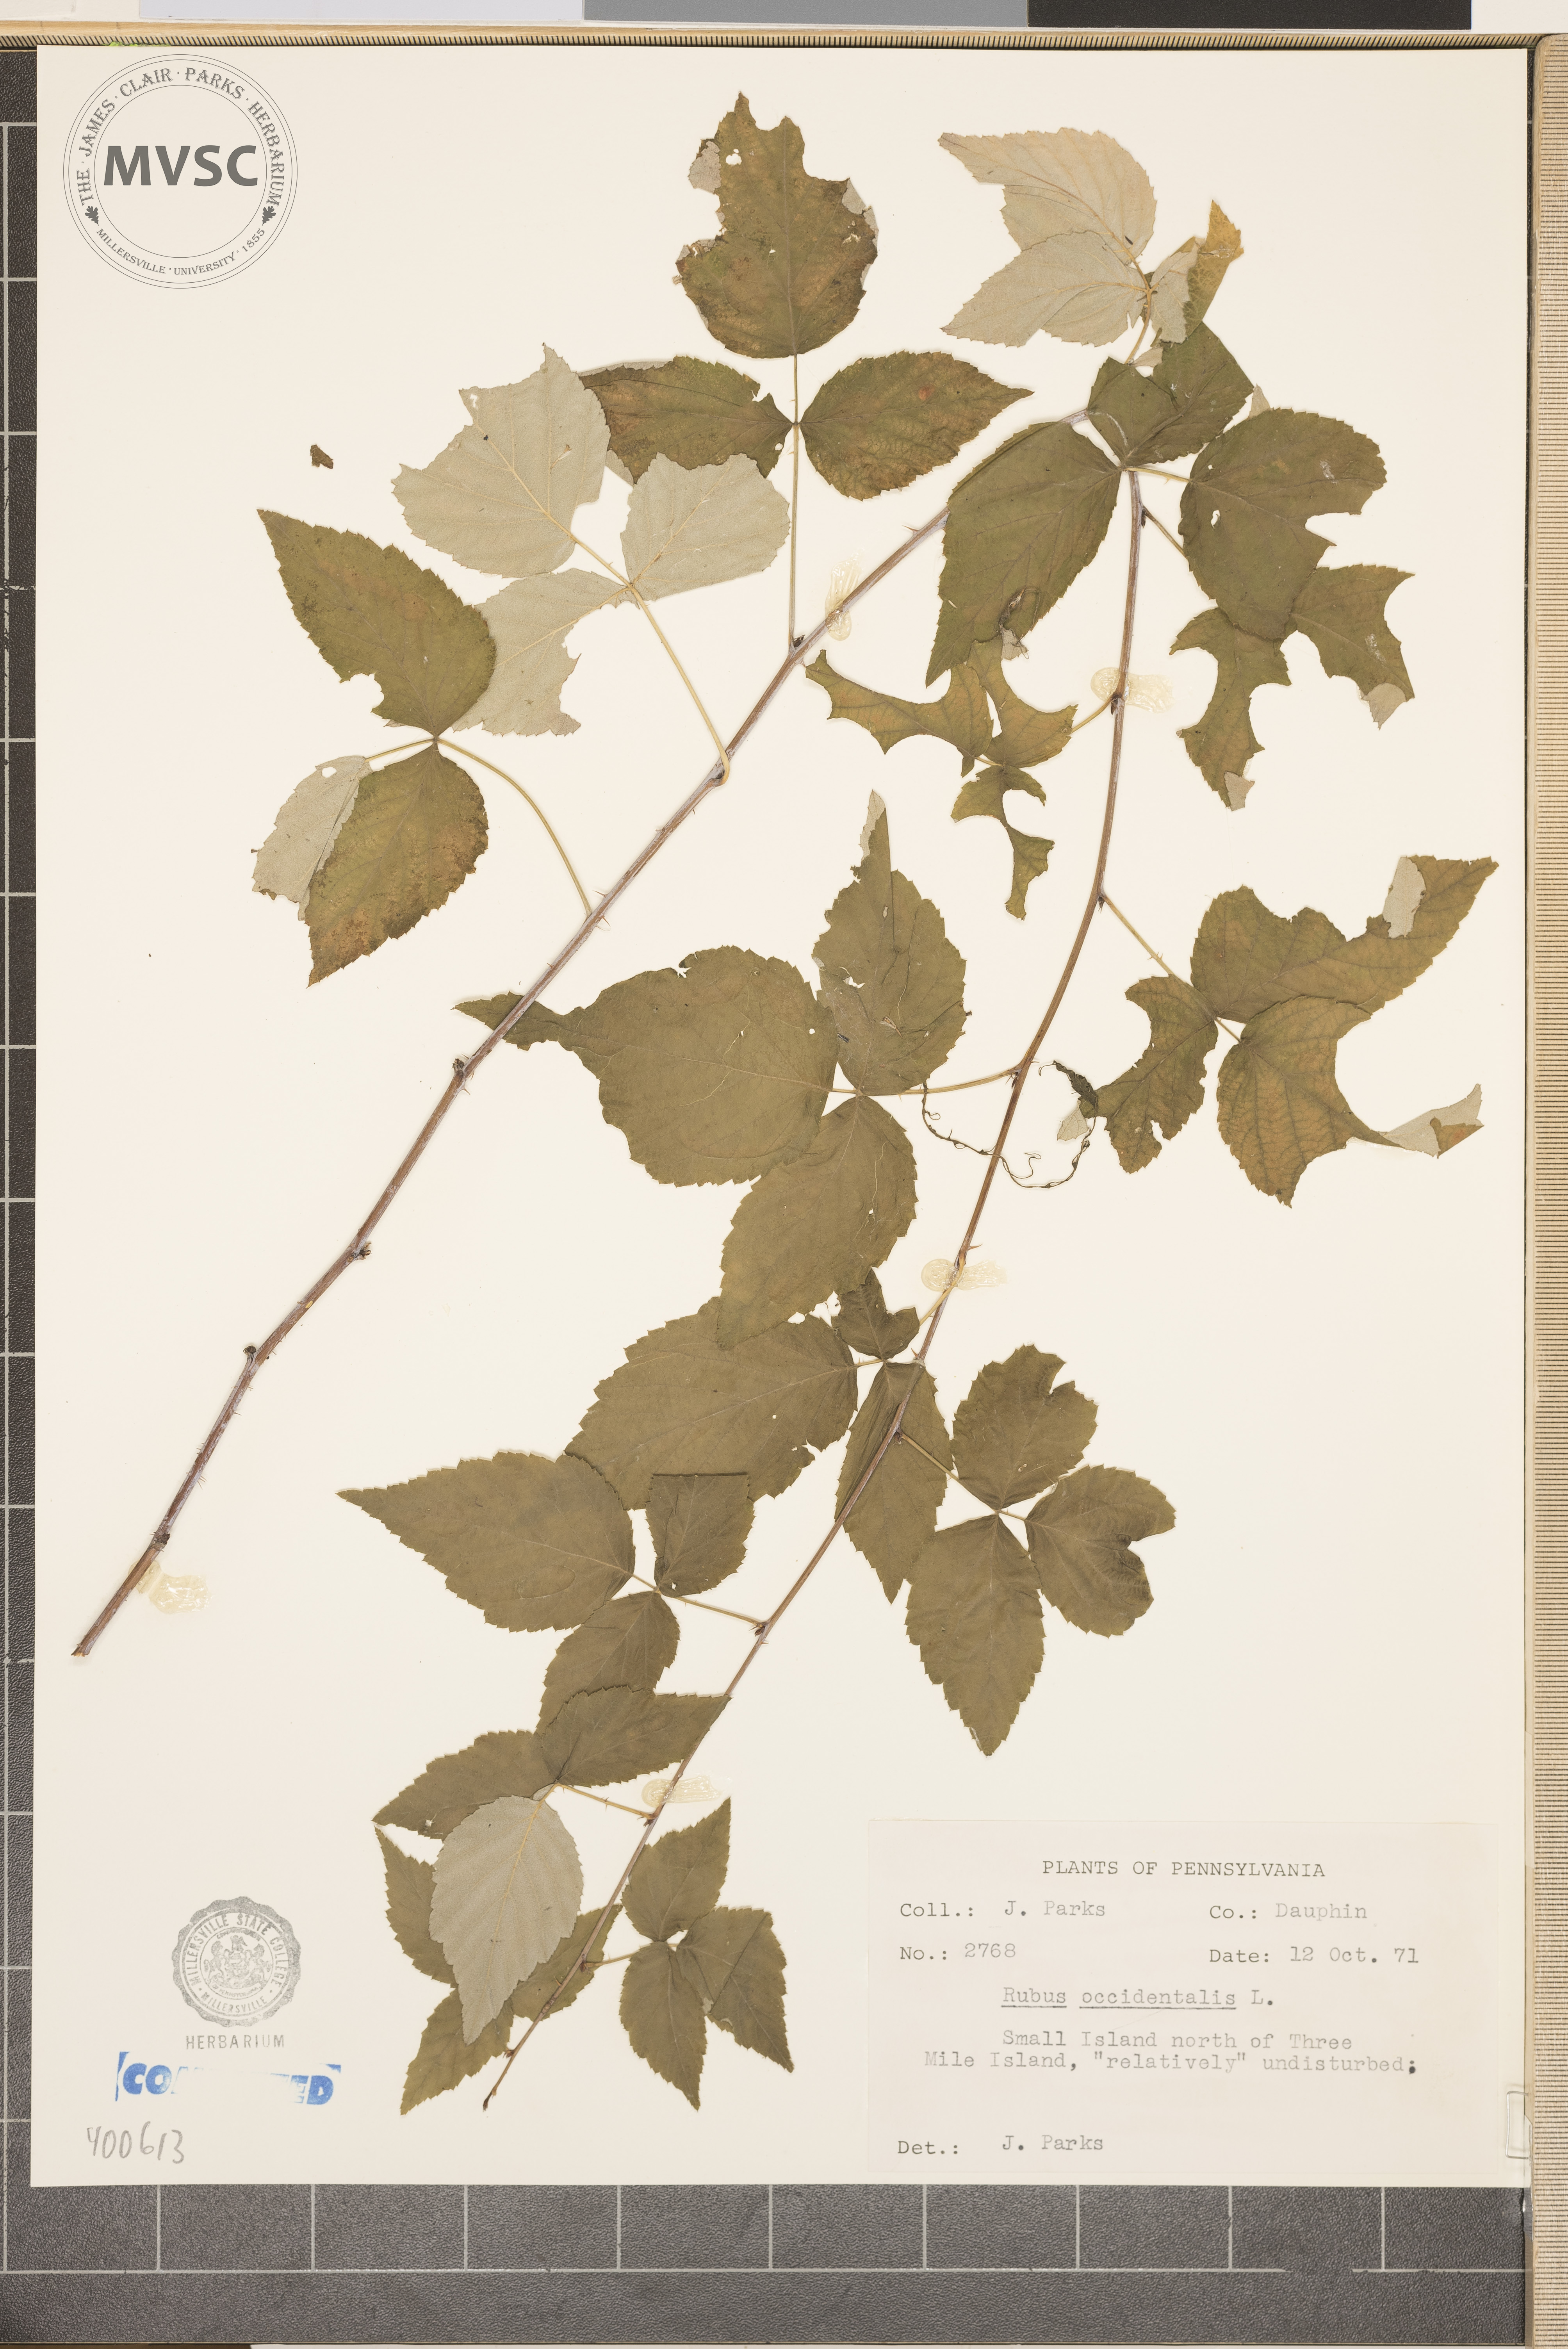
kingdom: Plantae
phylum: Tracheophyta
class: Magnoliopsida
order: Rosales
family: Rosaceae
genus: Rubus
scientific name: Rubus occidentalis
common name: Black Raspberry
